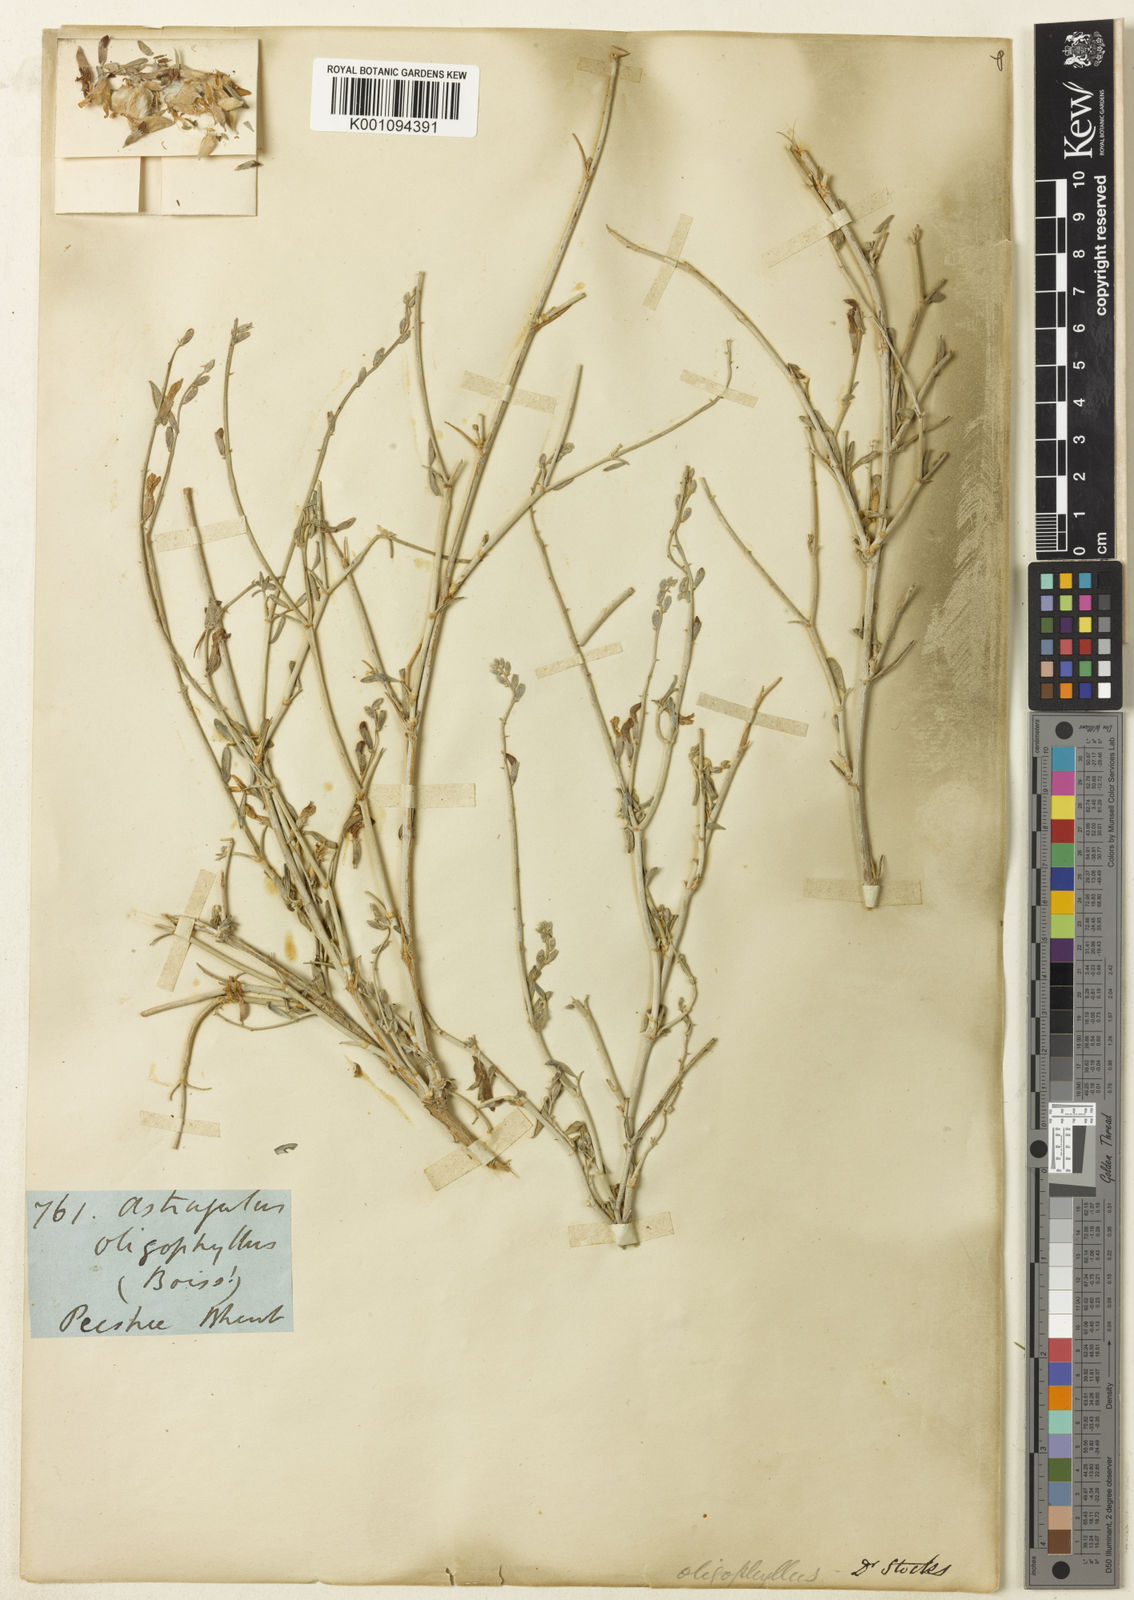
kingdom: Plantae
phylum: Tracheophyta
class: Magnoliopsida
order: Fabales
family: Fabaceae
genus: Astragalus
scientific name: Astragalus
